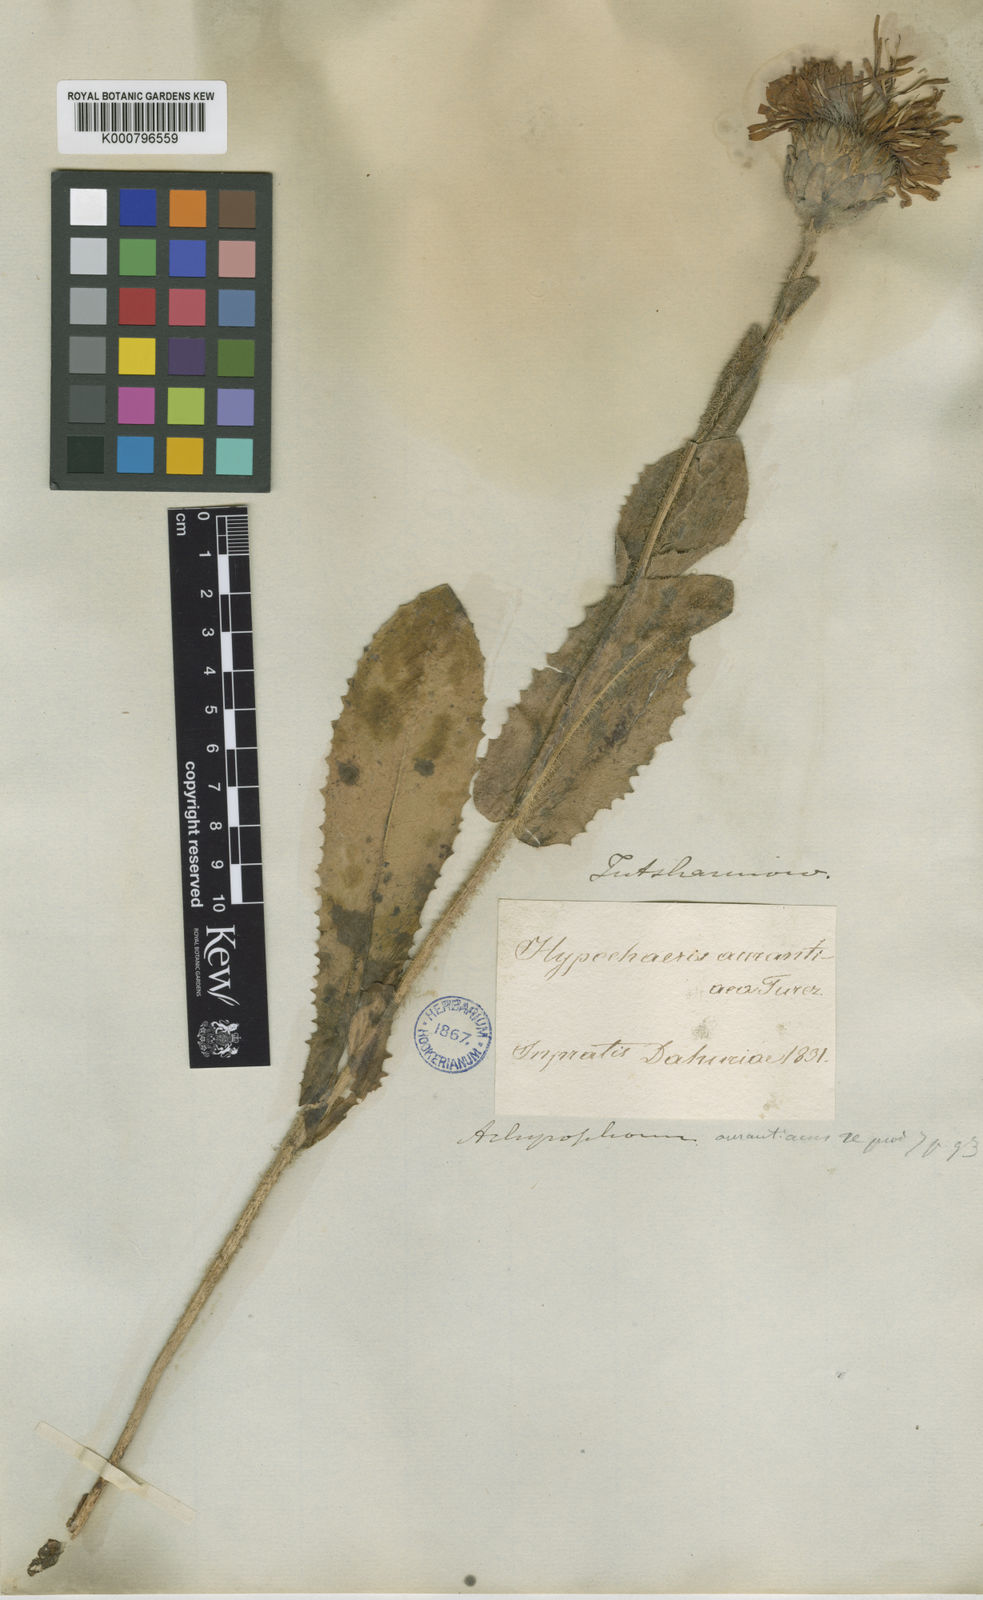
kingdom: Plantae
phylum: Tracheophyta
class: Magnoliopsida
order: Asterales
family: Asteraceae
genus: Trommsdorffia
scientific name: Trommsdorffia ciliata
